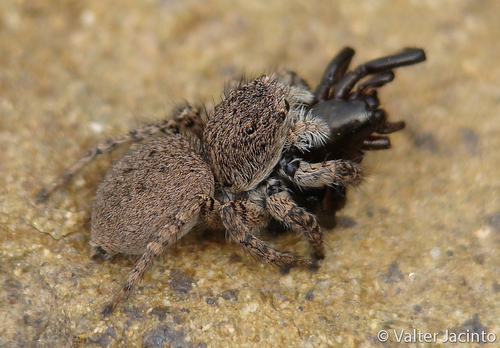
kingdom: Animalia
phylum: Arthropoda
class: Arachnida
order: Araneae
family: Salticidae
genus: Aelurillus
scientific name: Aelurillus v-insignitus
